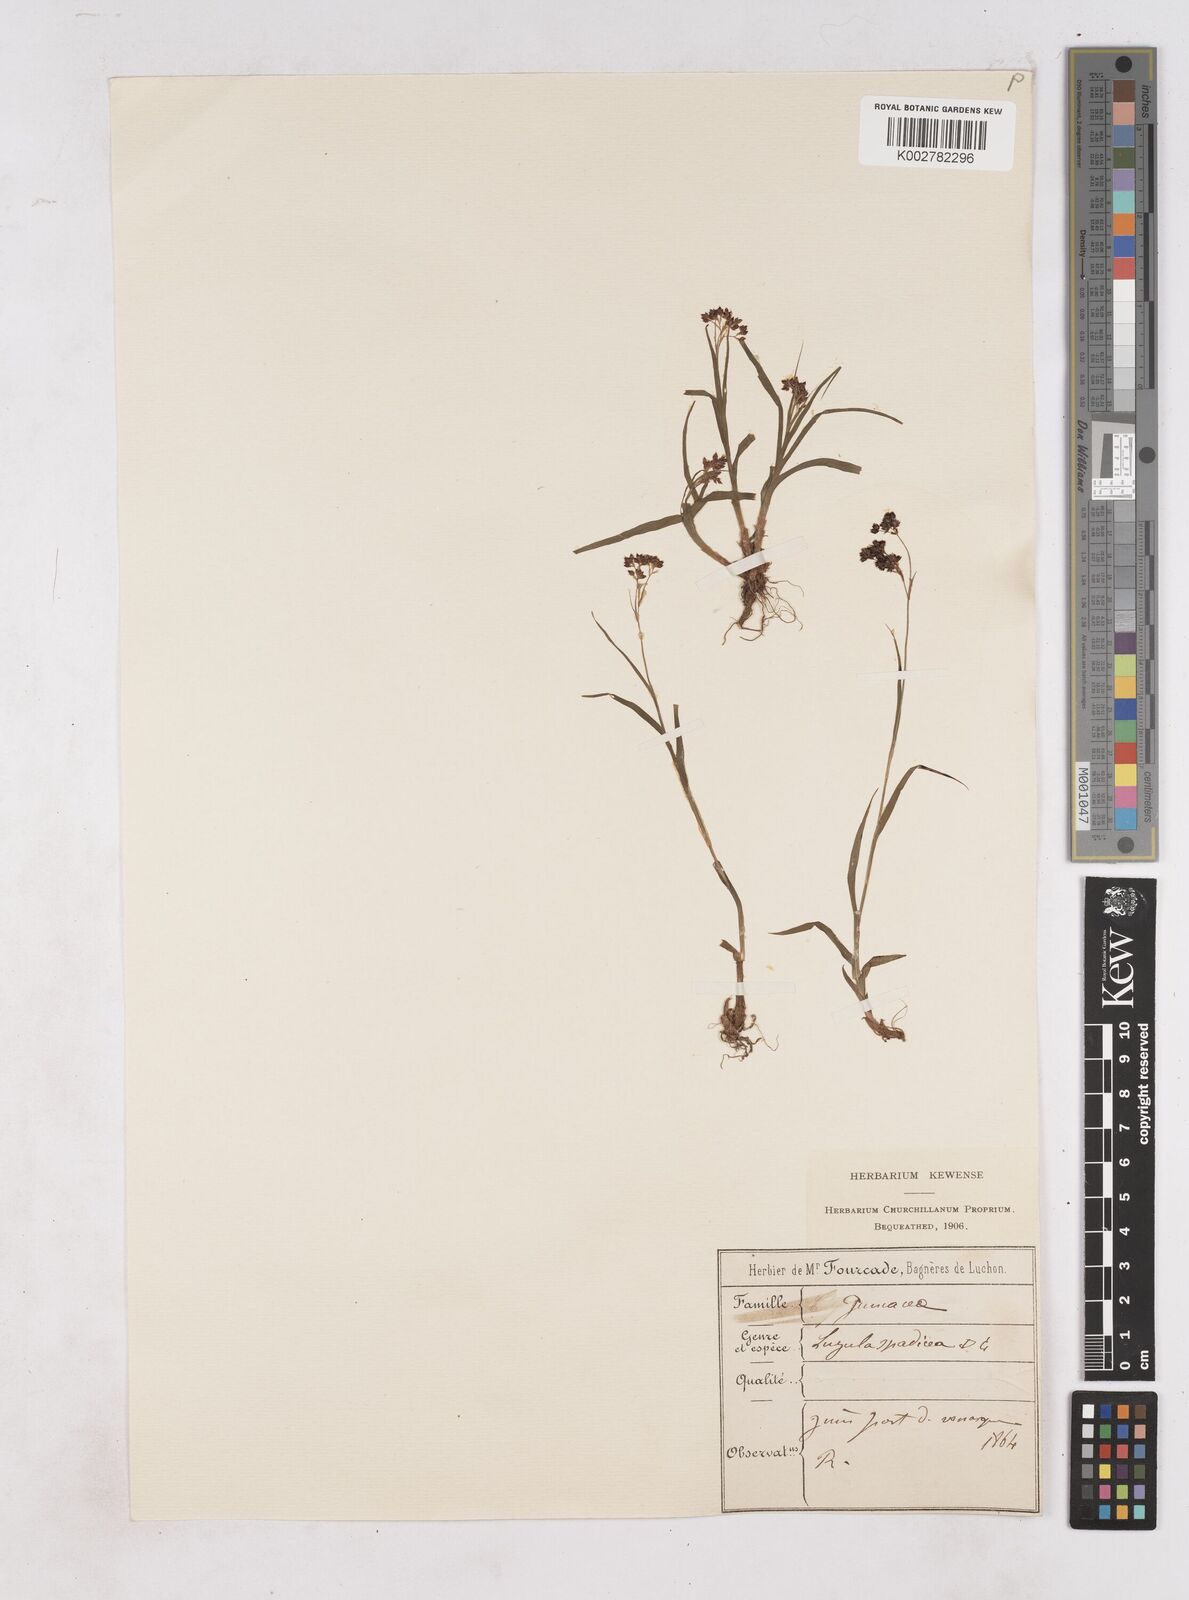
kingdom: Plantae
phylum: Tracheophyta
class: Liliopsida
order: Poales
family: Juncaceae
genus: Luzula
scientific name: Luzula alpinopilosa
